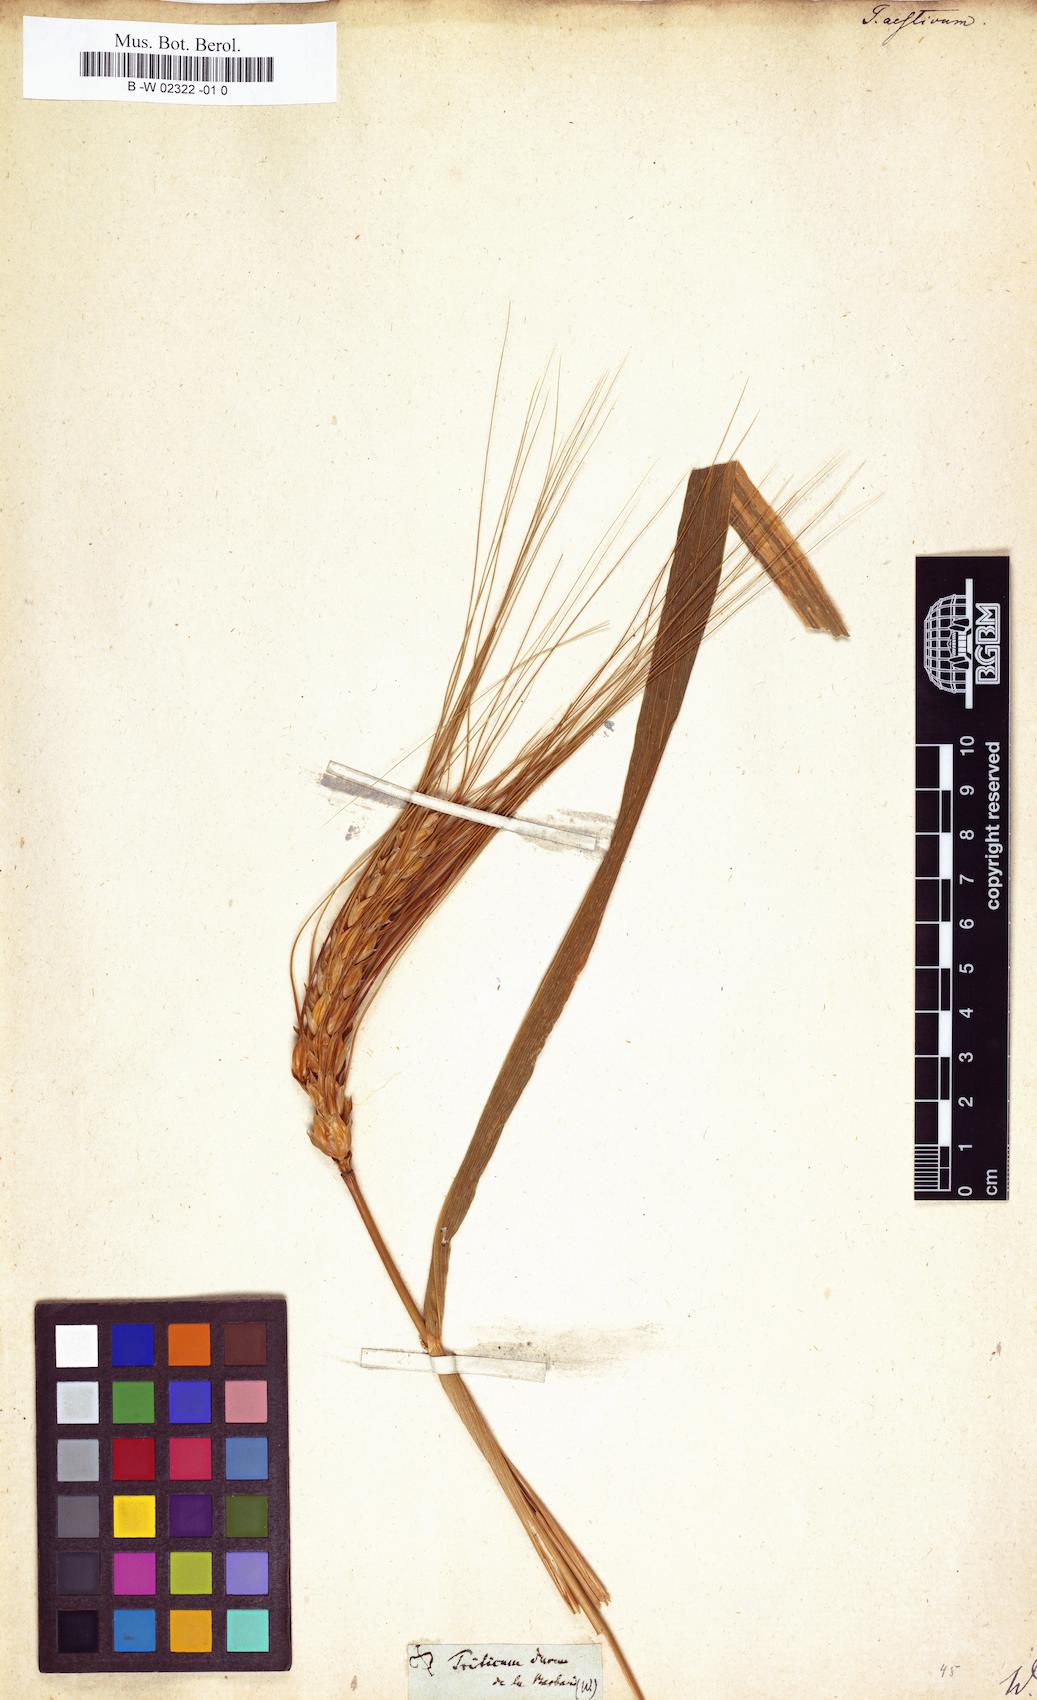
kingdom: Plantae
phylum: Tracheophyta
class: Liliopsida
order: Poales
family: Poaceae
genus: Triticum
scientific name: Triticum aestivum
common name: Common wheat
